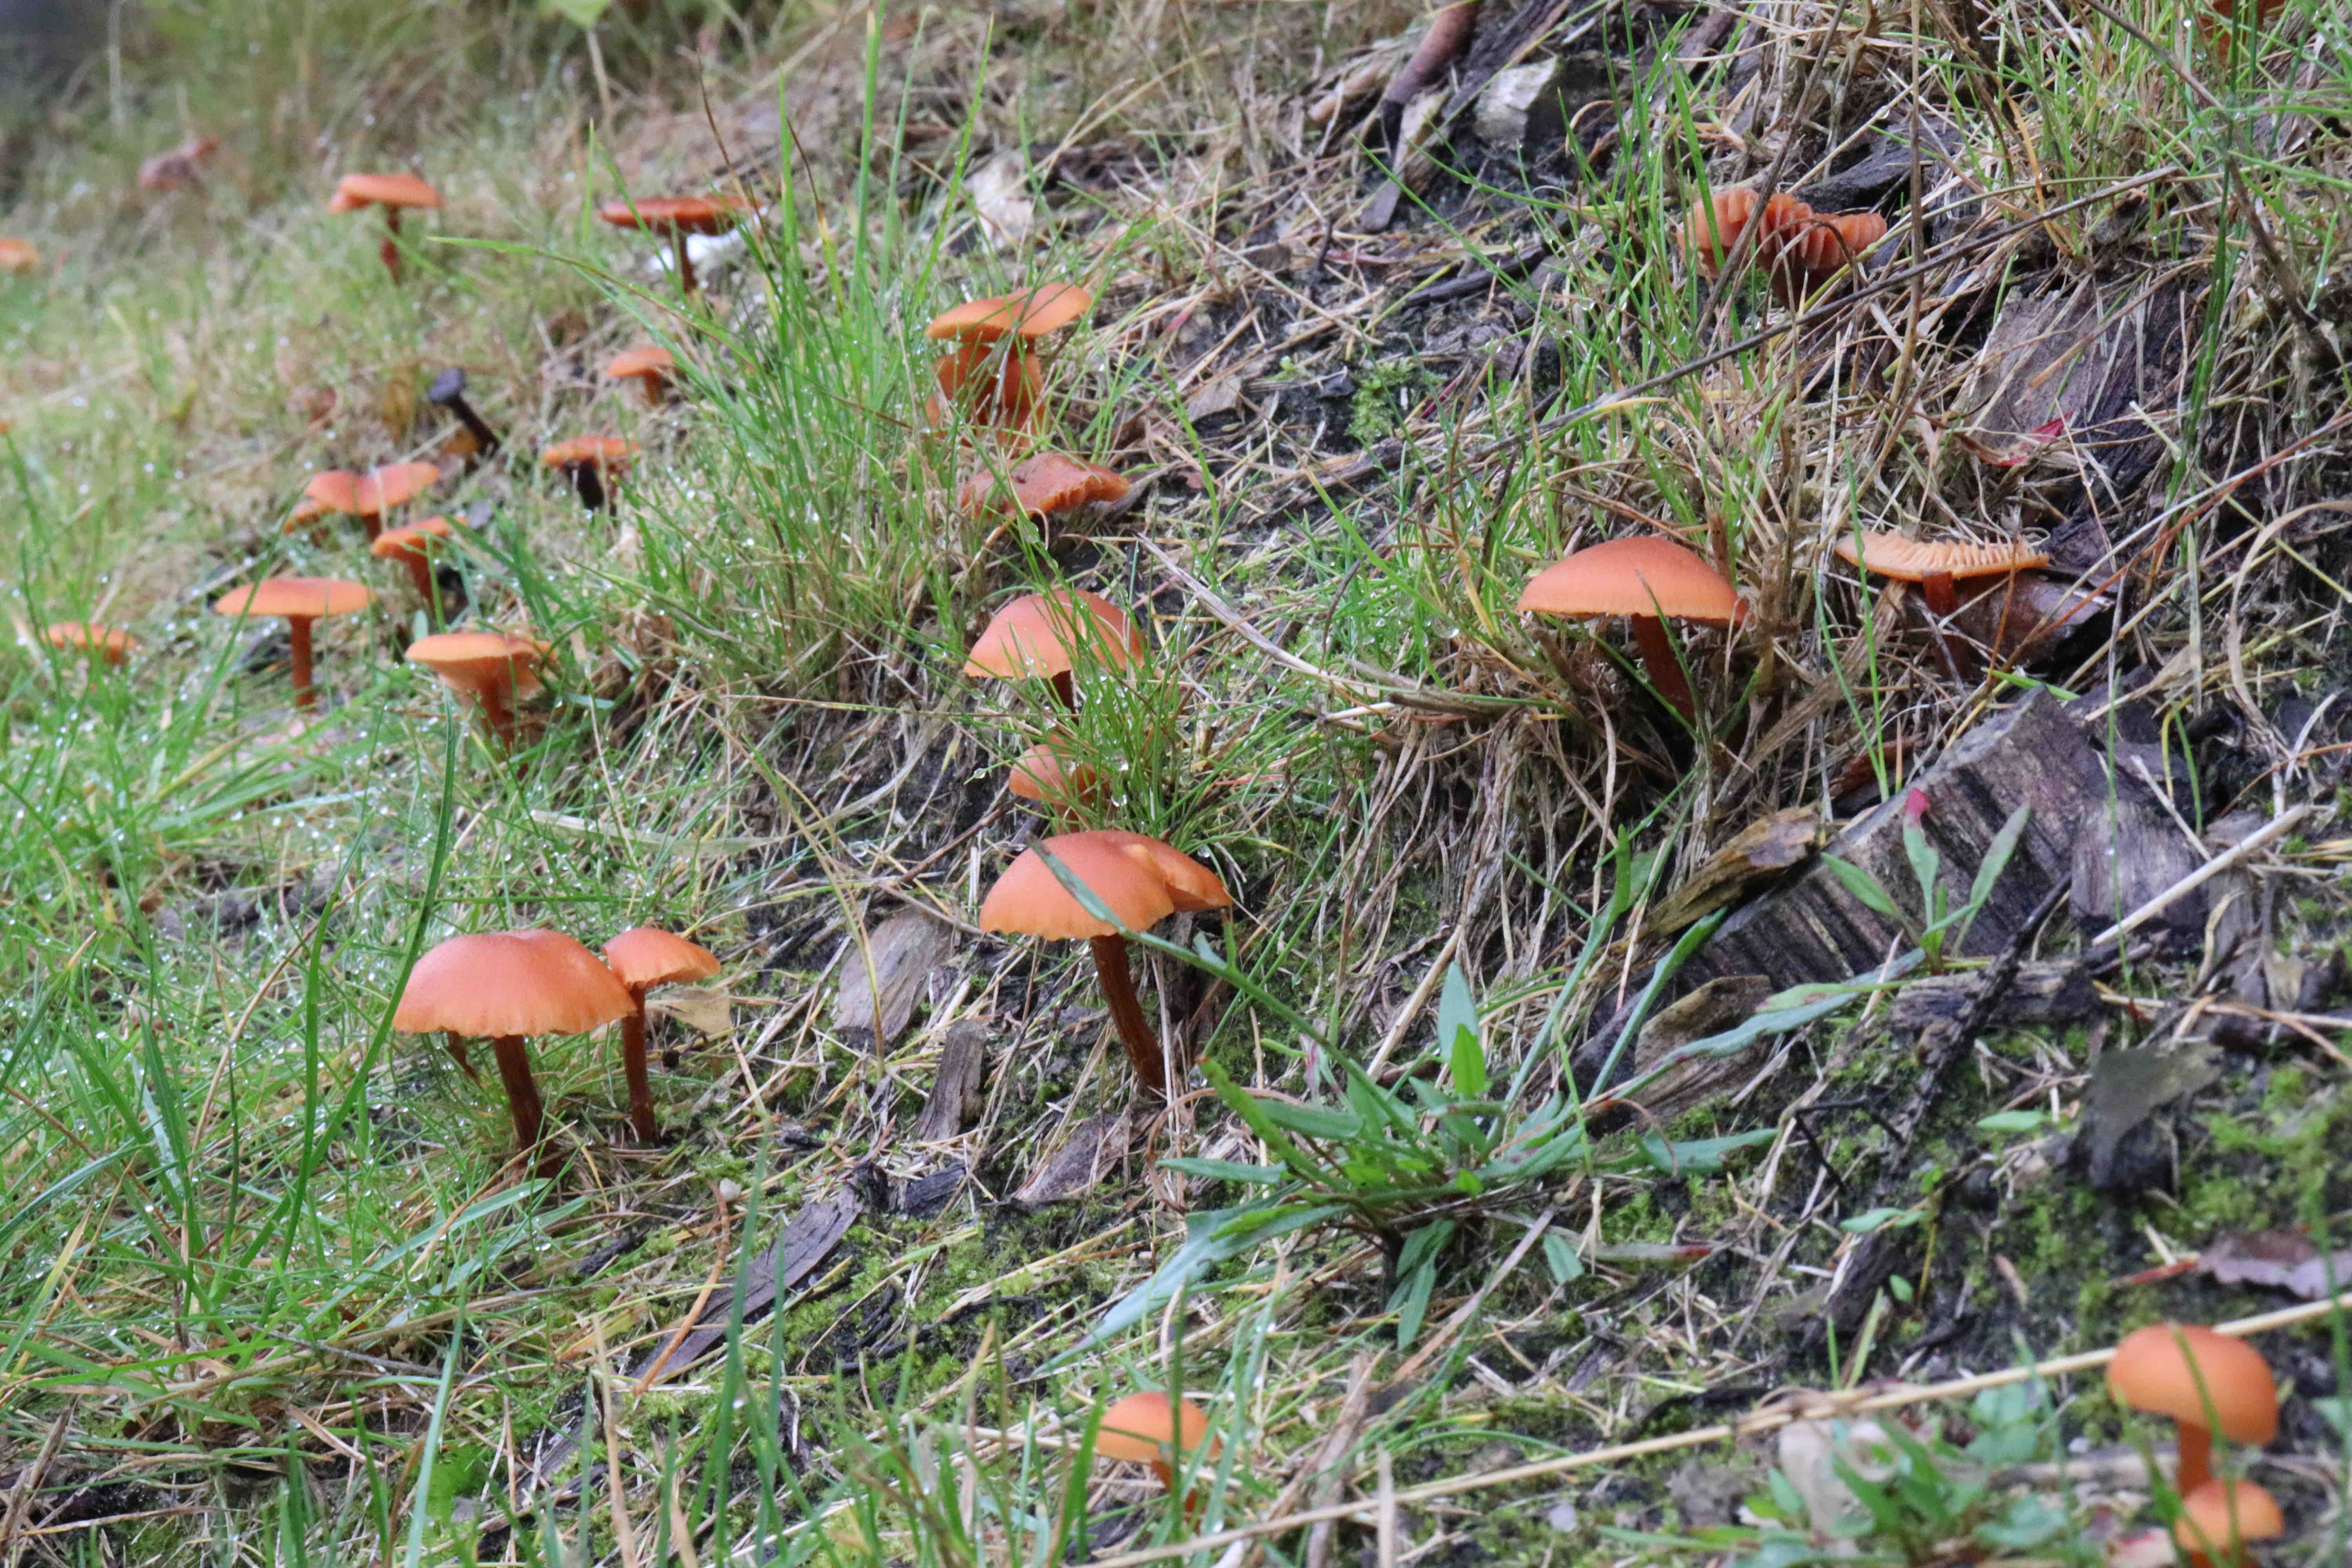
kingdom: Fungi
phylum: Basidiomycota
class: Agaricomycetes
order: Agaricales
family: Hydnangiaceae
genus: Laccaria
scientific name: Laccaria proxima
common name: stor ametysthat
